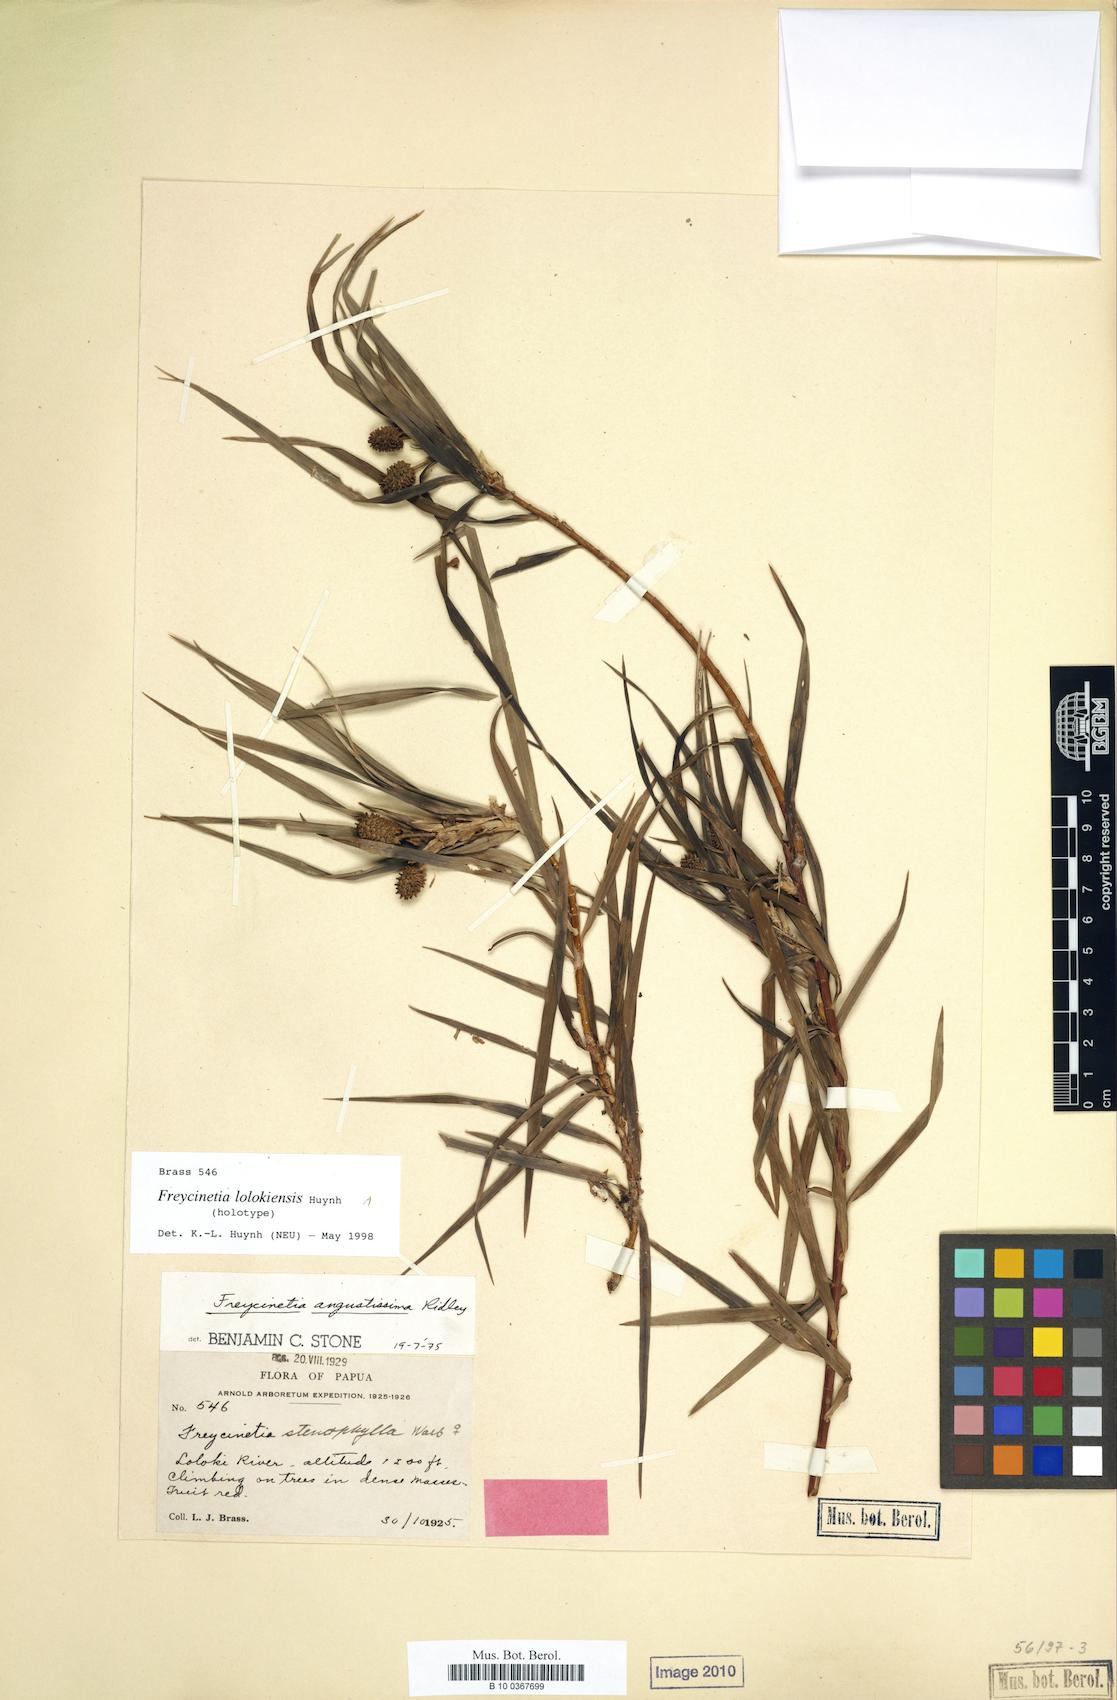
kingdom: Plantae
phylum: Tracheophyta
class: Liliopsida
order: Pandanales
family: Pandanaceae
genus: Freycinetia
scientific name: Freycinetia lalokiensis
